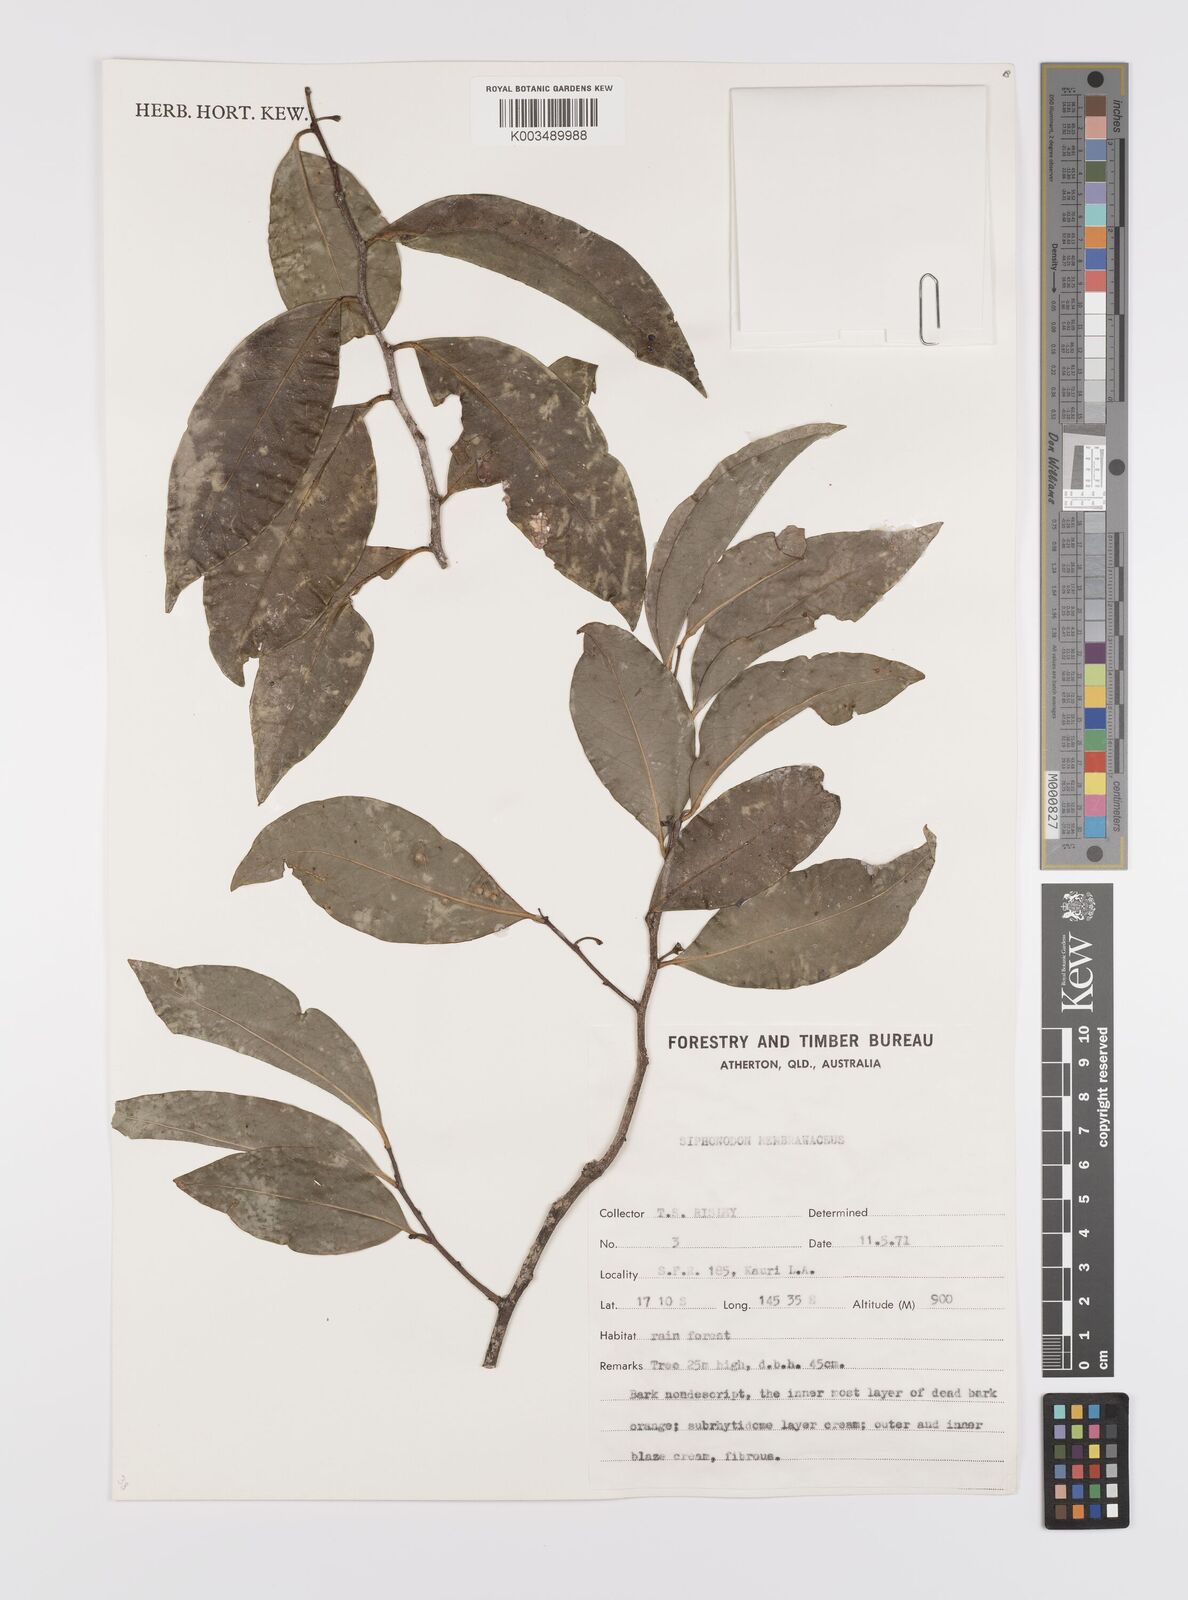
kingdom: Plantae
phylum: Tracheophyta
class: Magnoliopsida
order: Celastrales
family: Celastraceae
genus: Siphonodon
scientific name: Siphonodon membranaceus
